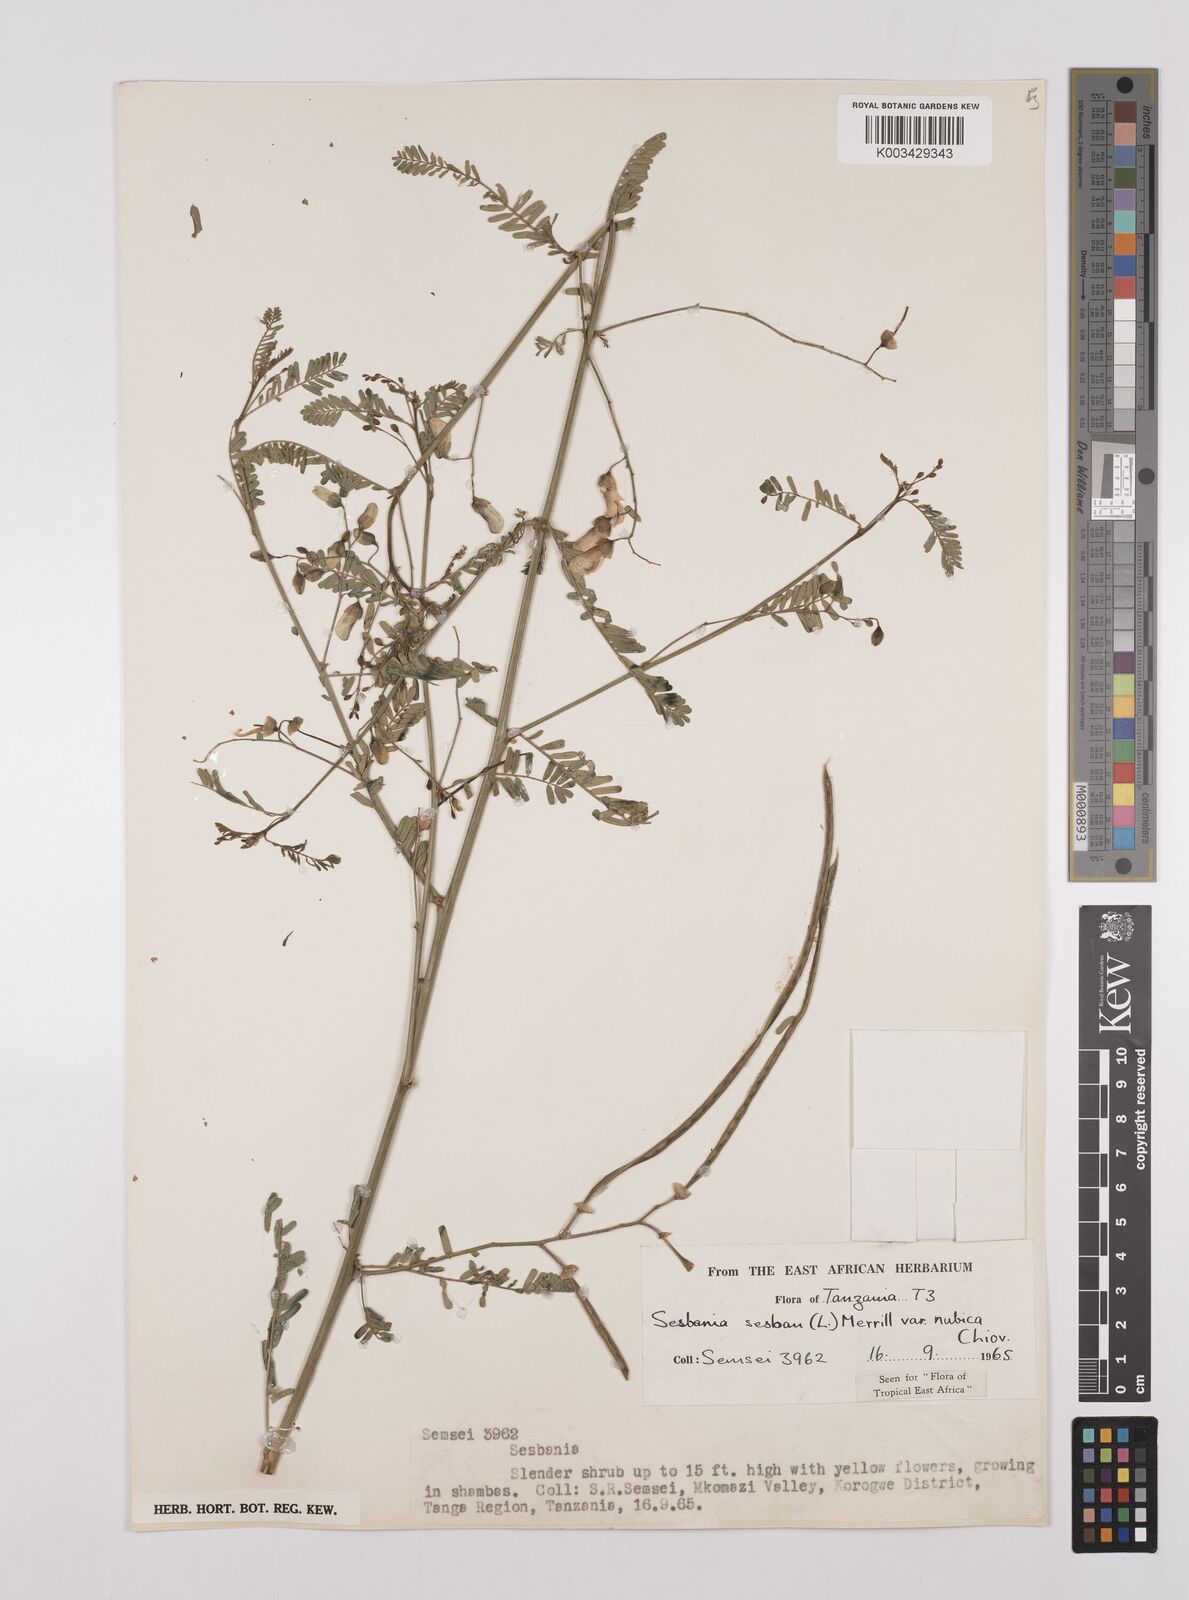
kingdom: Plantae
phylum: Tracheophyta
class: Magnoliopsida
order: Fabales
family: Fabaceae
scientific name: Fabaceae
